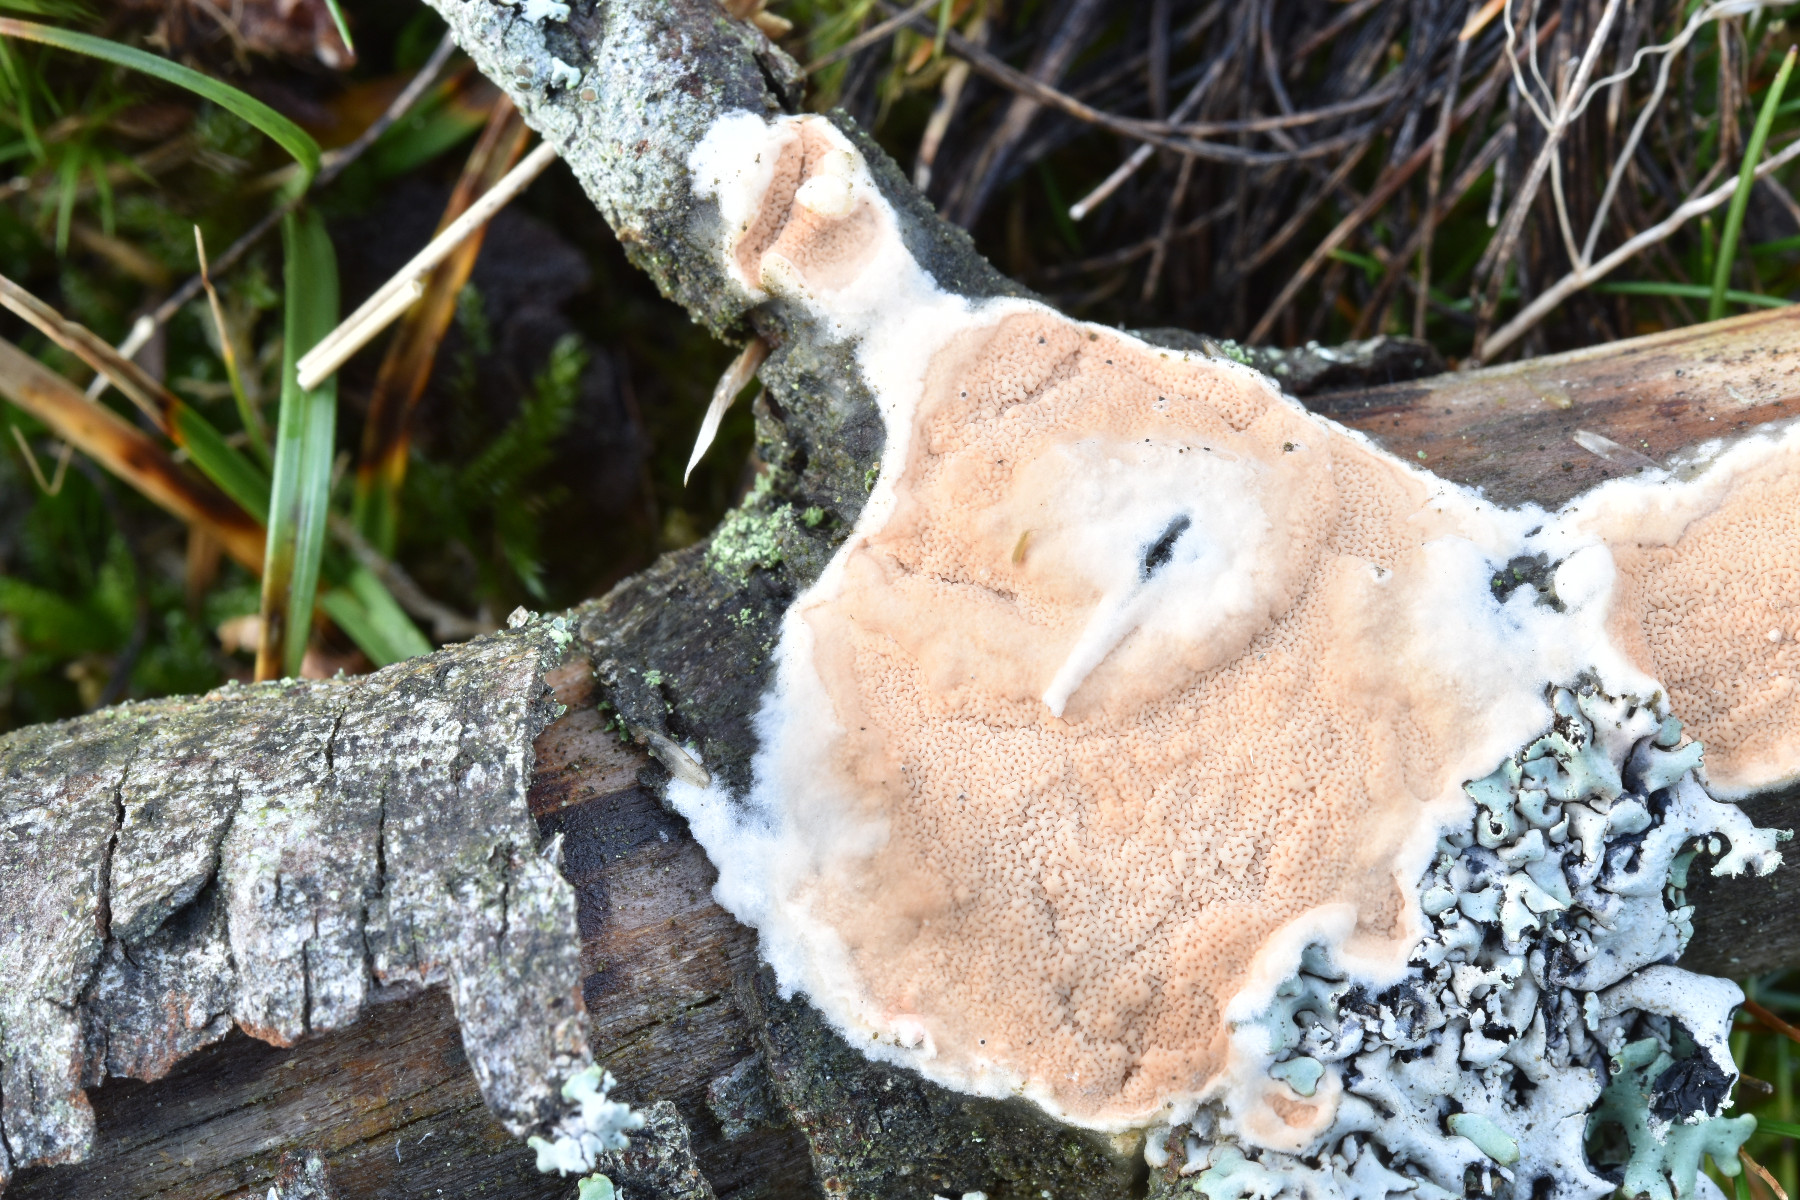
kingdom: Fungi
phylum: Basidiomycota
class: Agaricomycetes
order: Polyporales
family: Irpicaceae
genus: Meruliopsis
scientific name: Meruliopsis taxicola
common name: purpurbrun foldporesvamp
